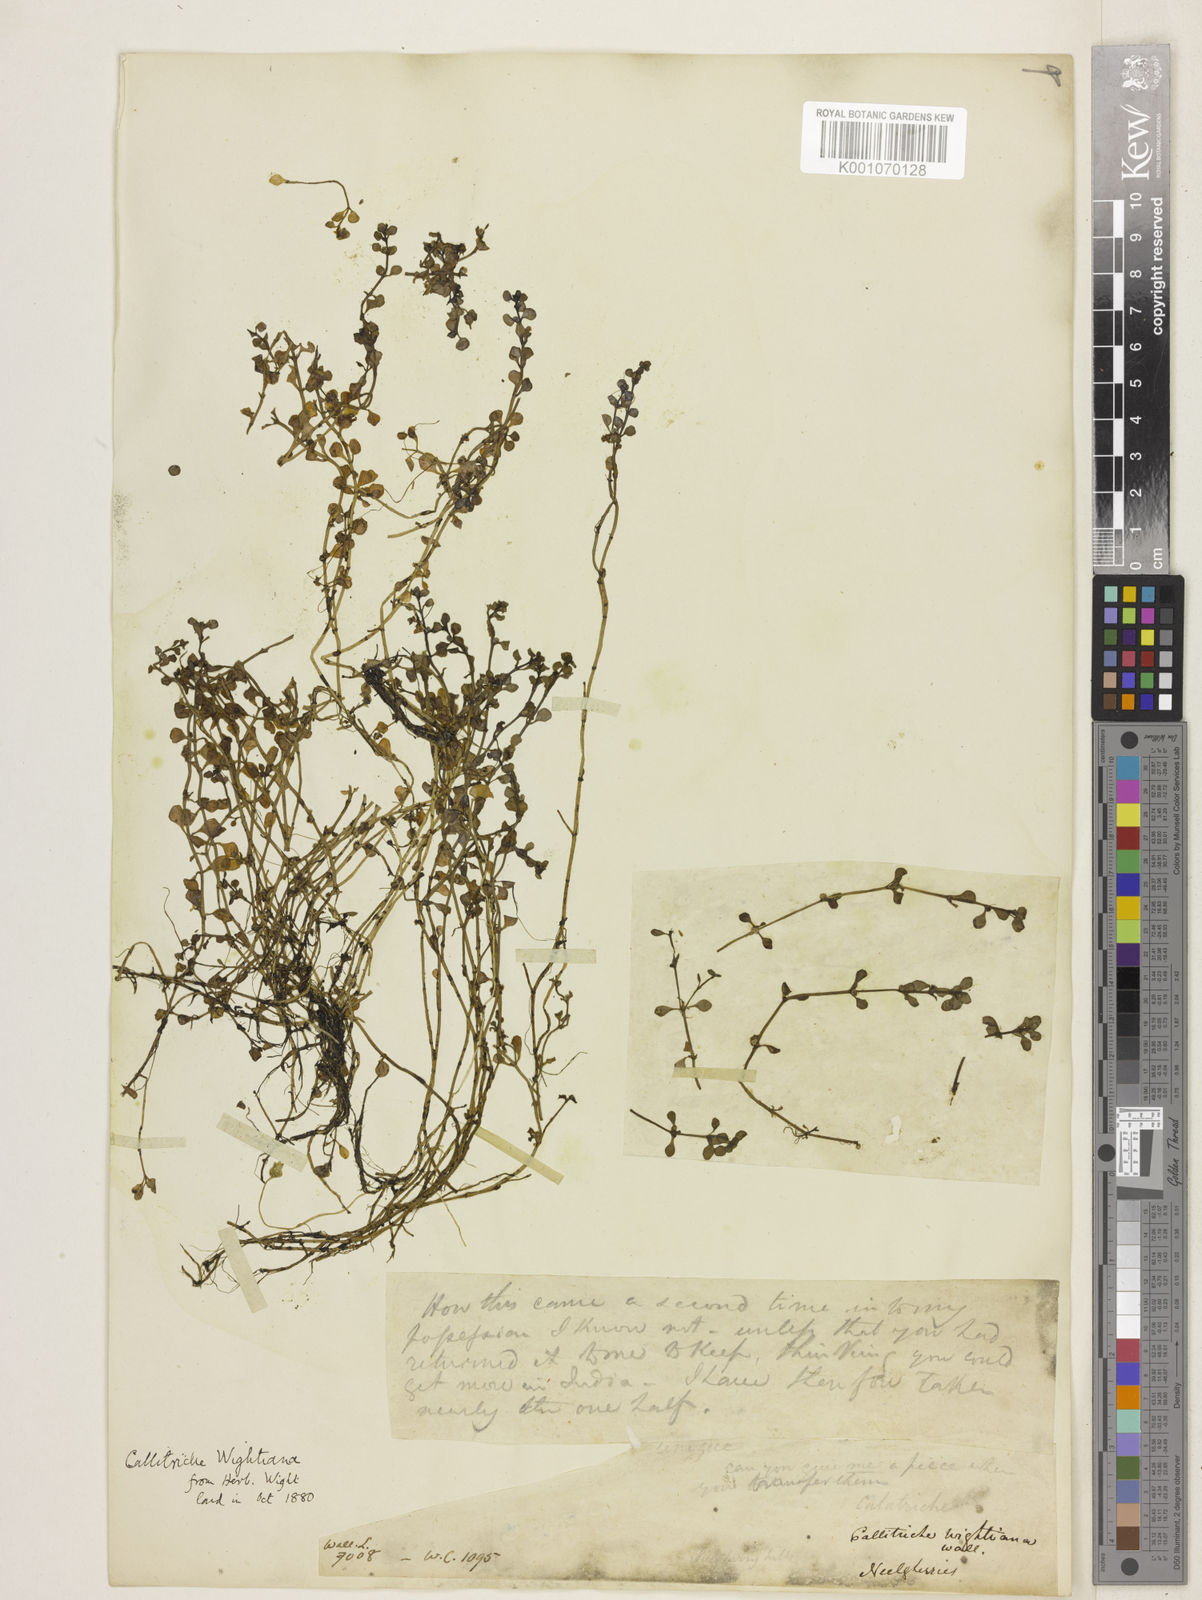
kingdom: Plantae
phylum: Tracheophyta
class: Magnoliopsida
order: Lamiales
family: Plantaginaceae
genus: Callitriche
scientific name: Callitriche stagnalis
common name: Common water-starwort
